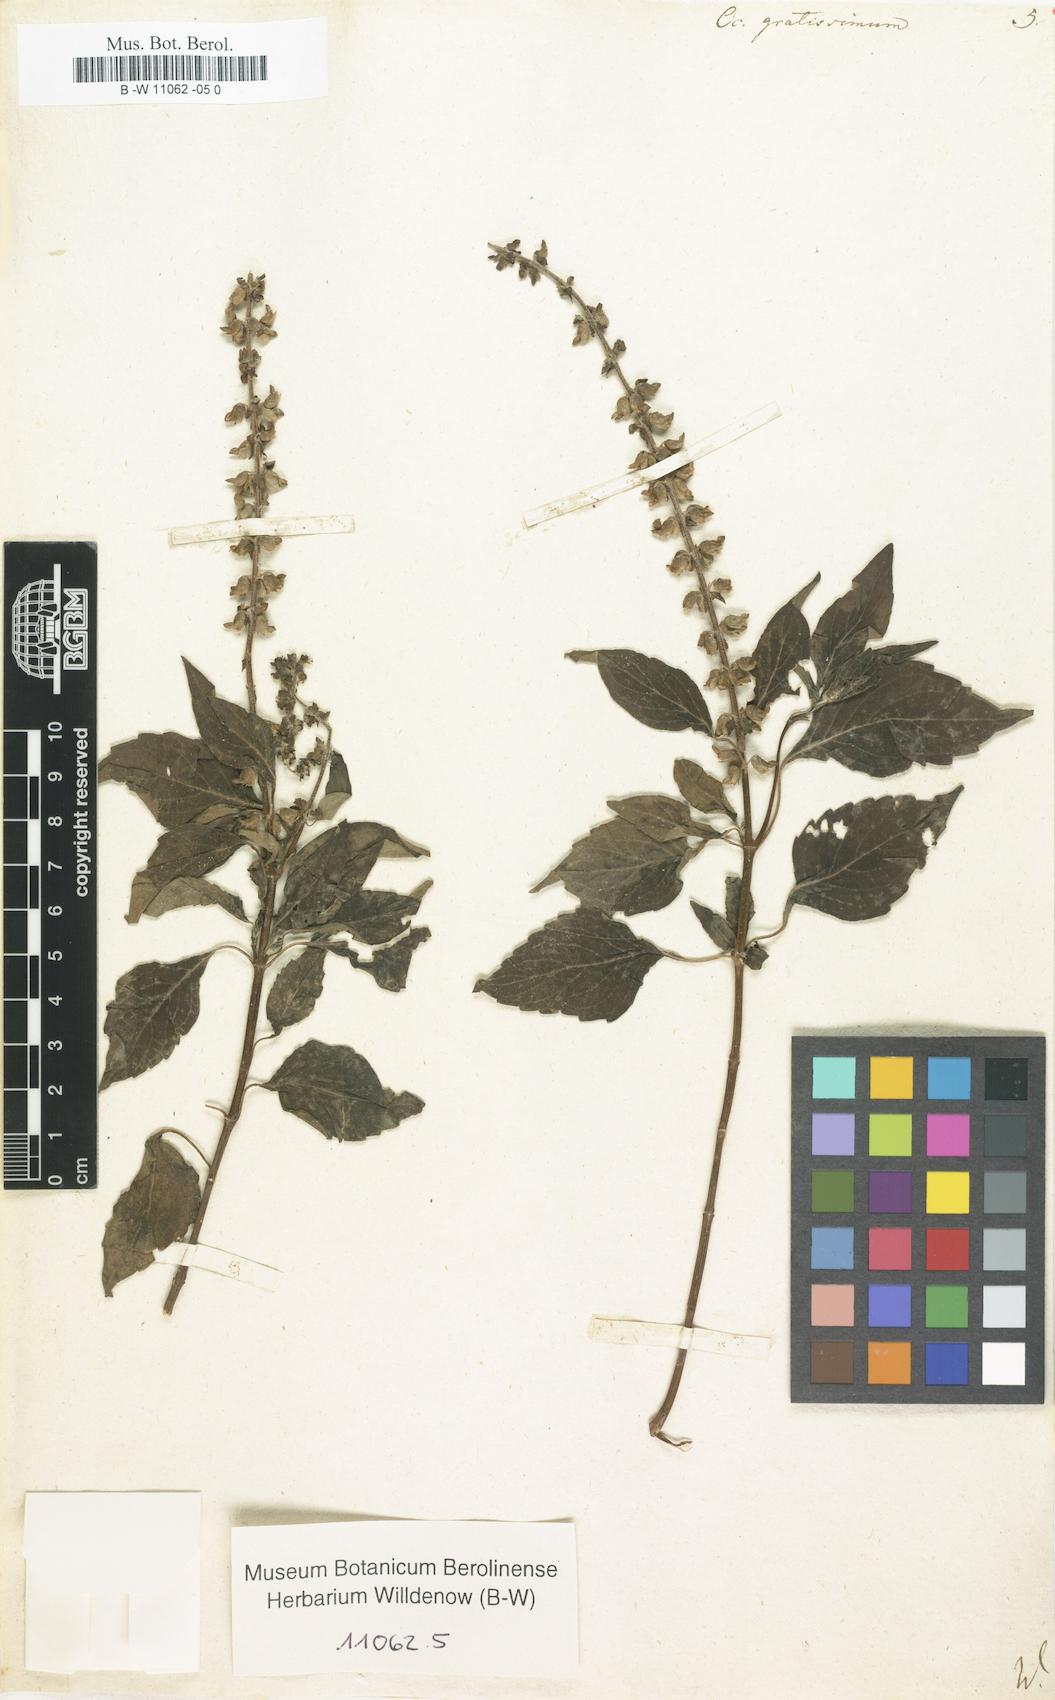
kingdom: Plantae
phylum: Tracheophyta
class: Magnoliopsida
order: Lamiales
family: Lamiaceae
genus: Ocimum
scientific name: Ocimum gratissimum
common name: African basil
